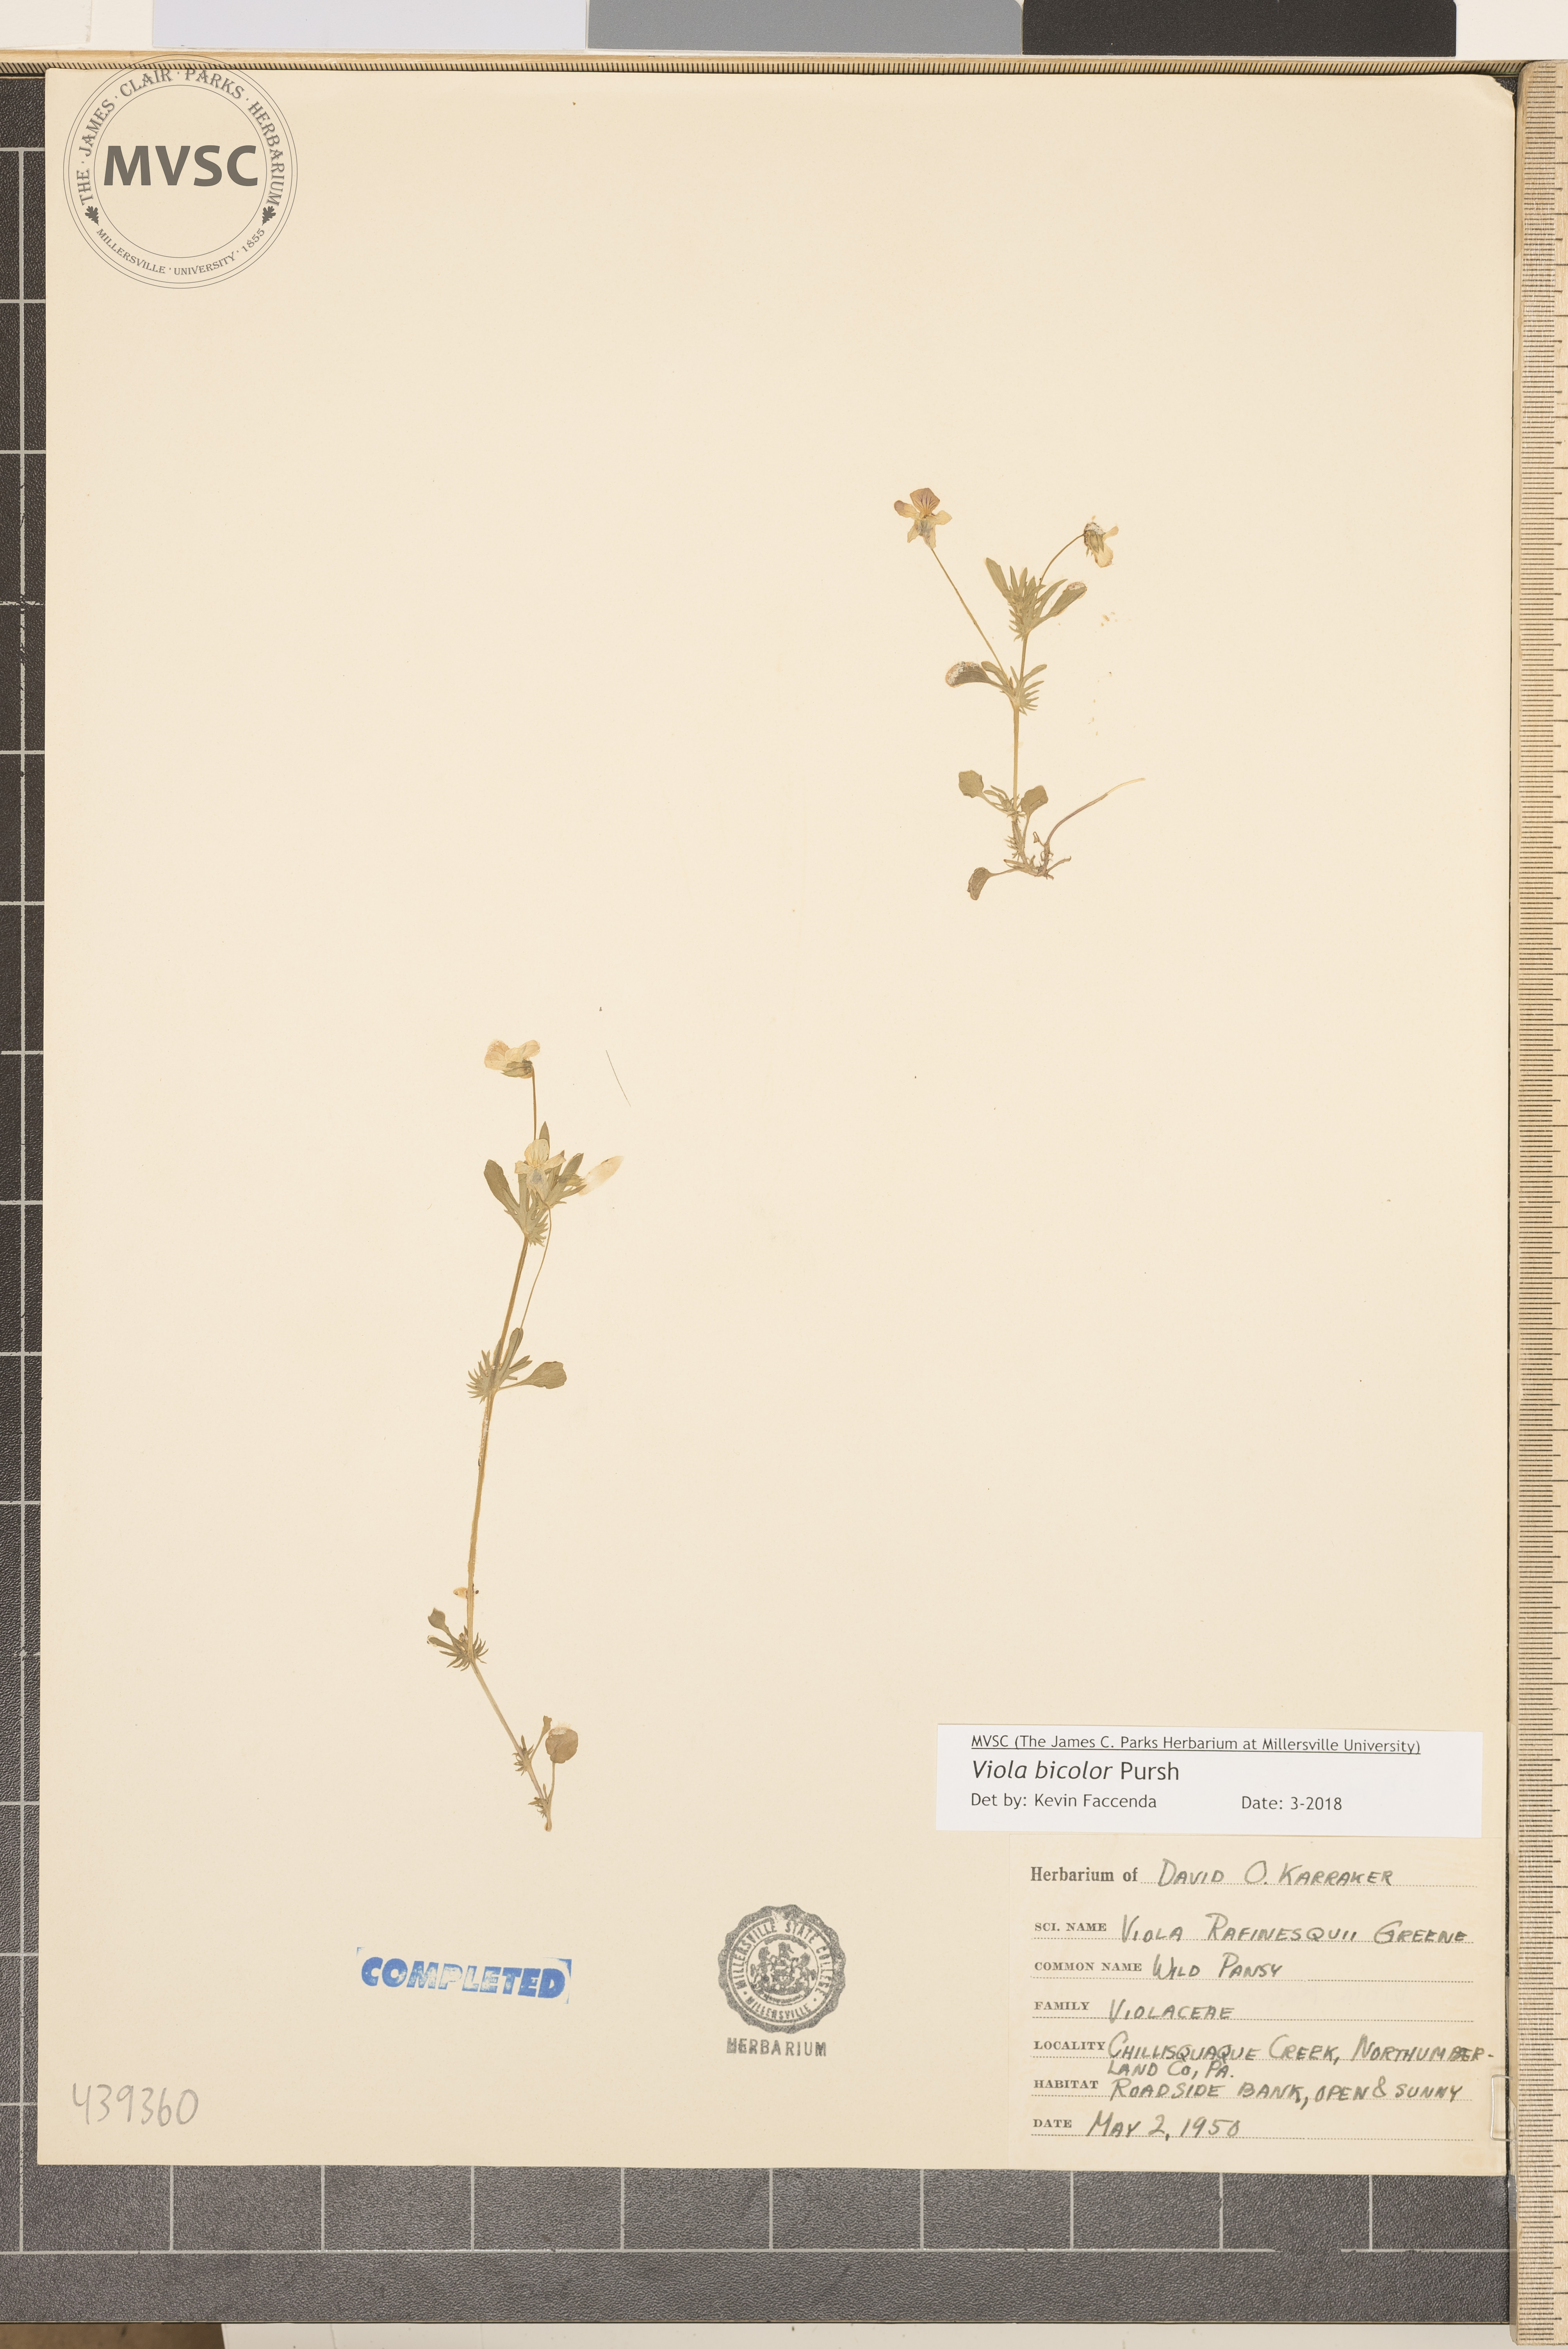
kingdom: Plantae
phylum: Tracheophyta
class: Magnoliopsida
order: Malpighiales
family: Violaceae
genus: Viola
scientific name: Viola rafinesquei
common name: Wild pansy
